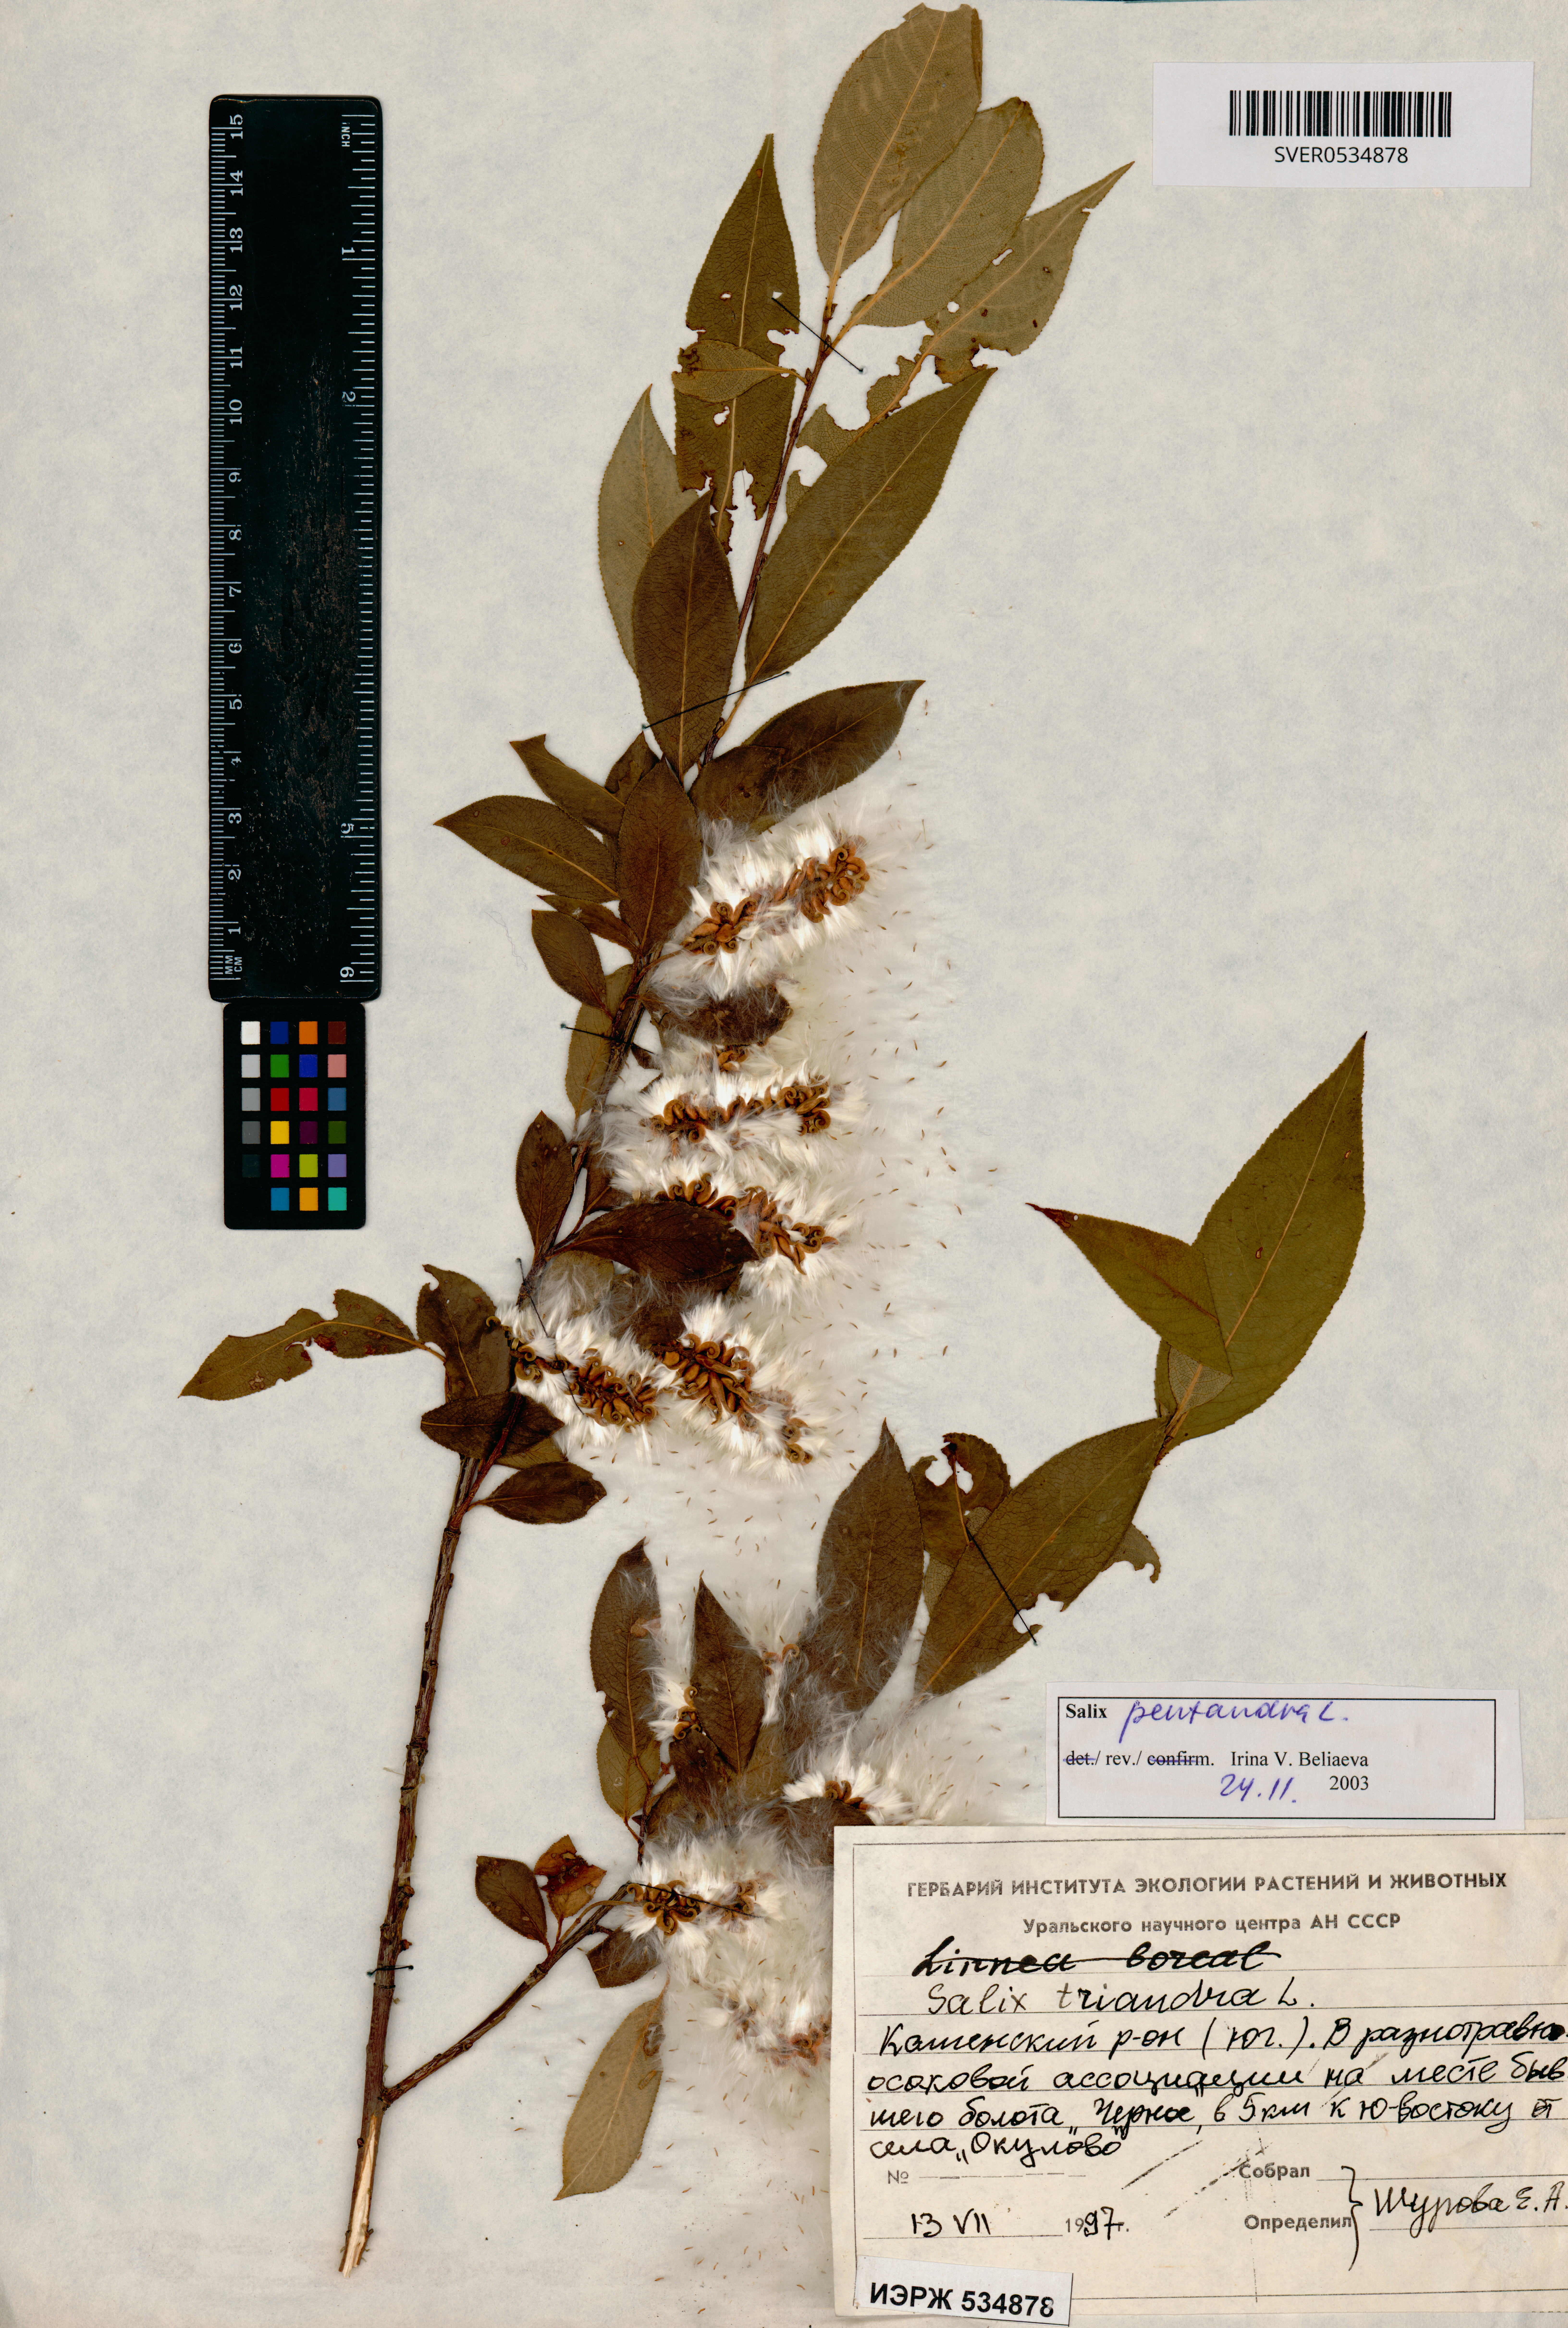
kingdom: Plantae
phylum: Tracheophyta
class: Magnoliopsida
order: Malpighiales
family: Salicaceae
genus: Salix
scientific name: Salix pentandra
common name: Bay willow
